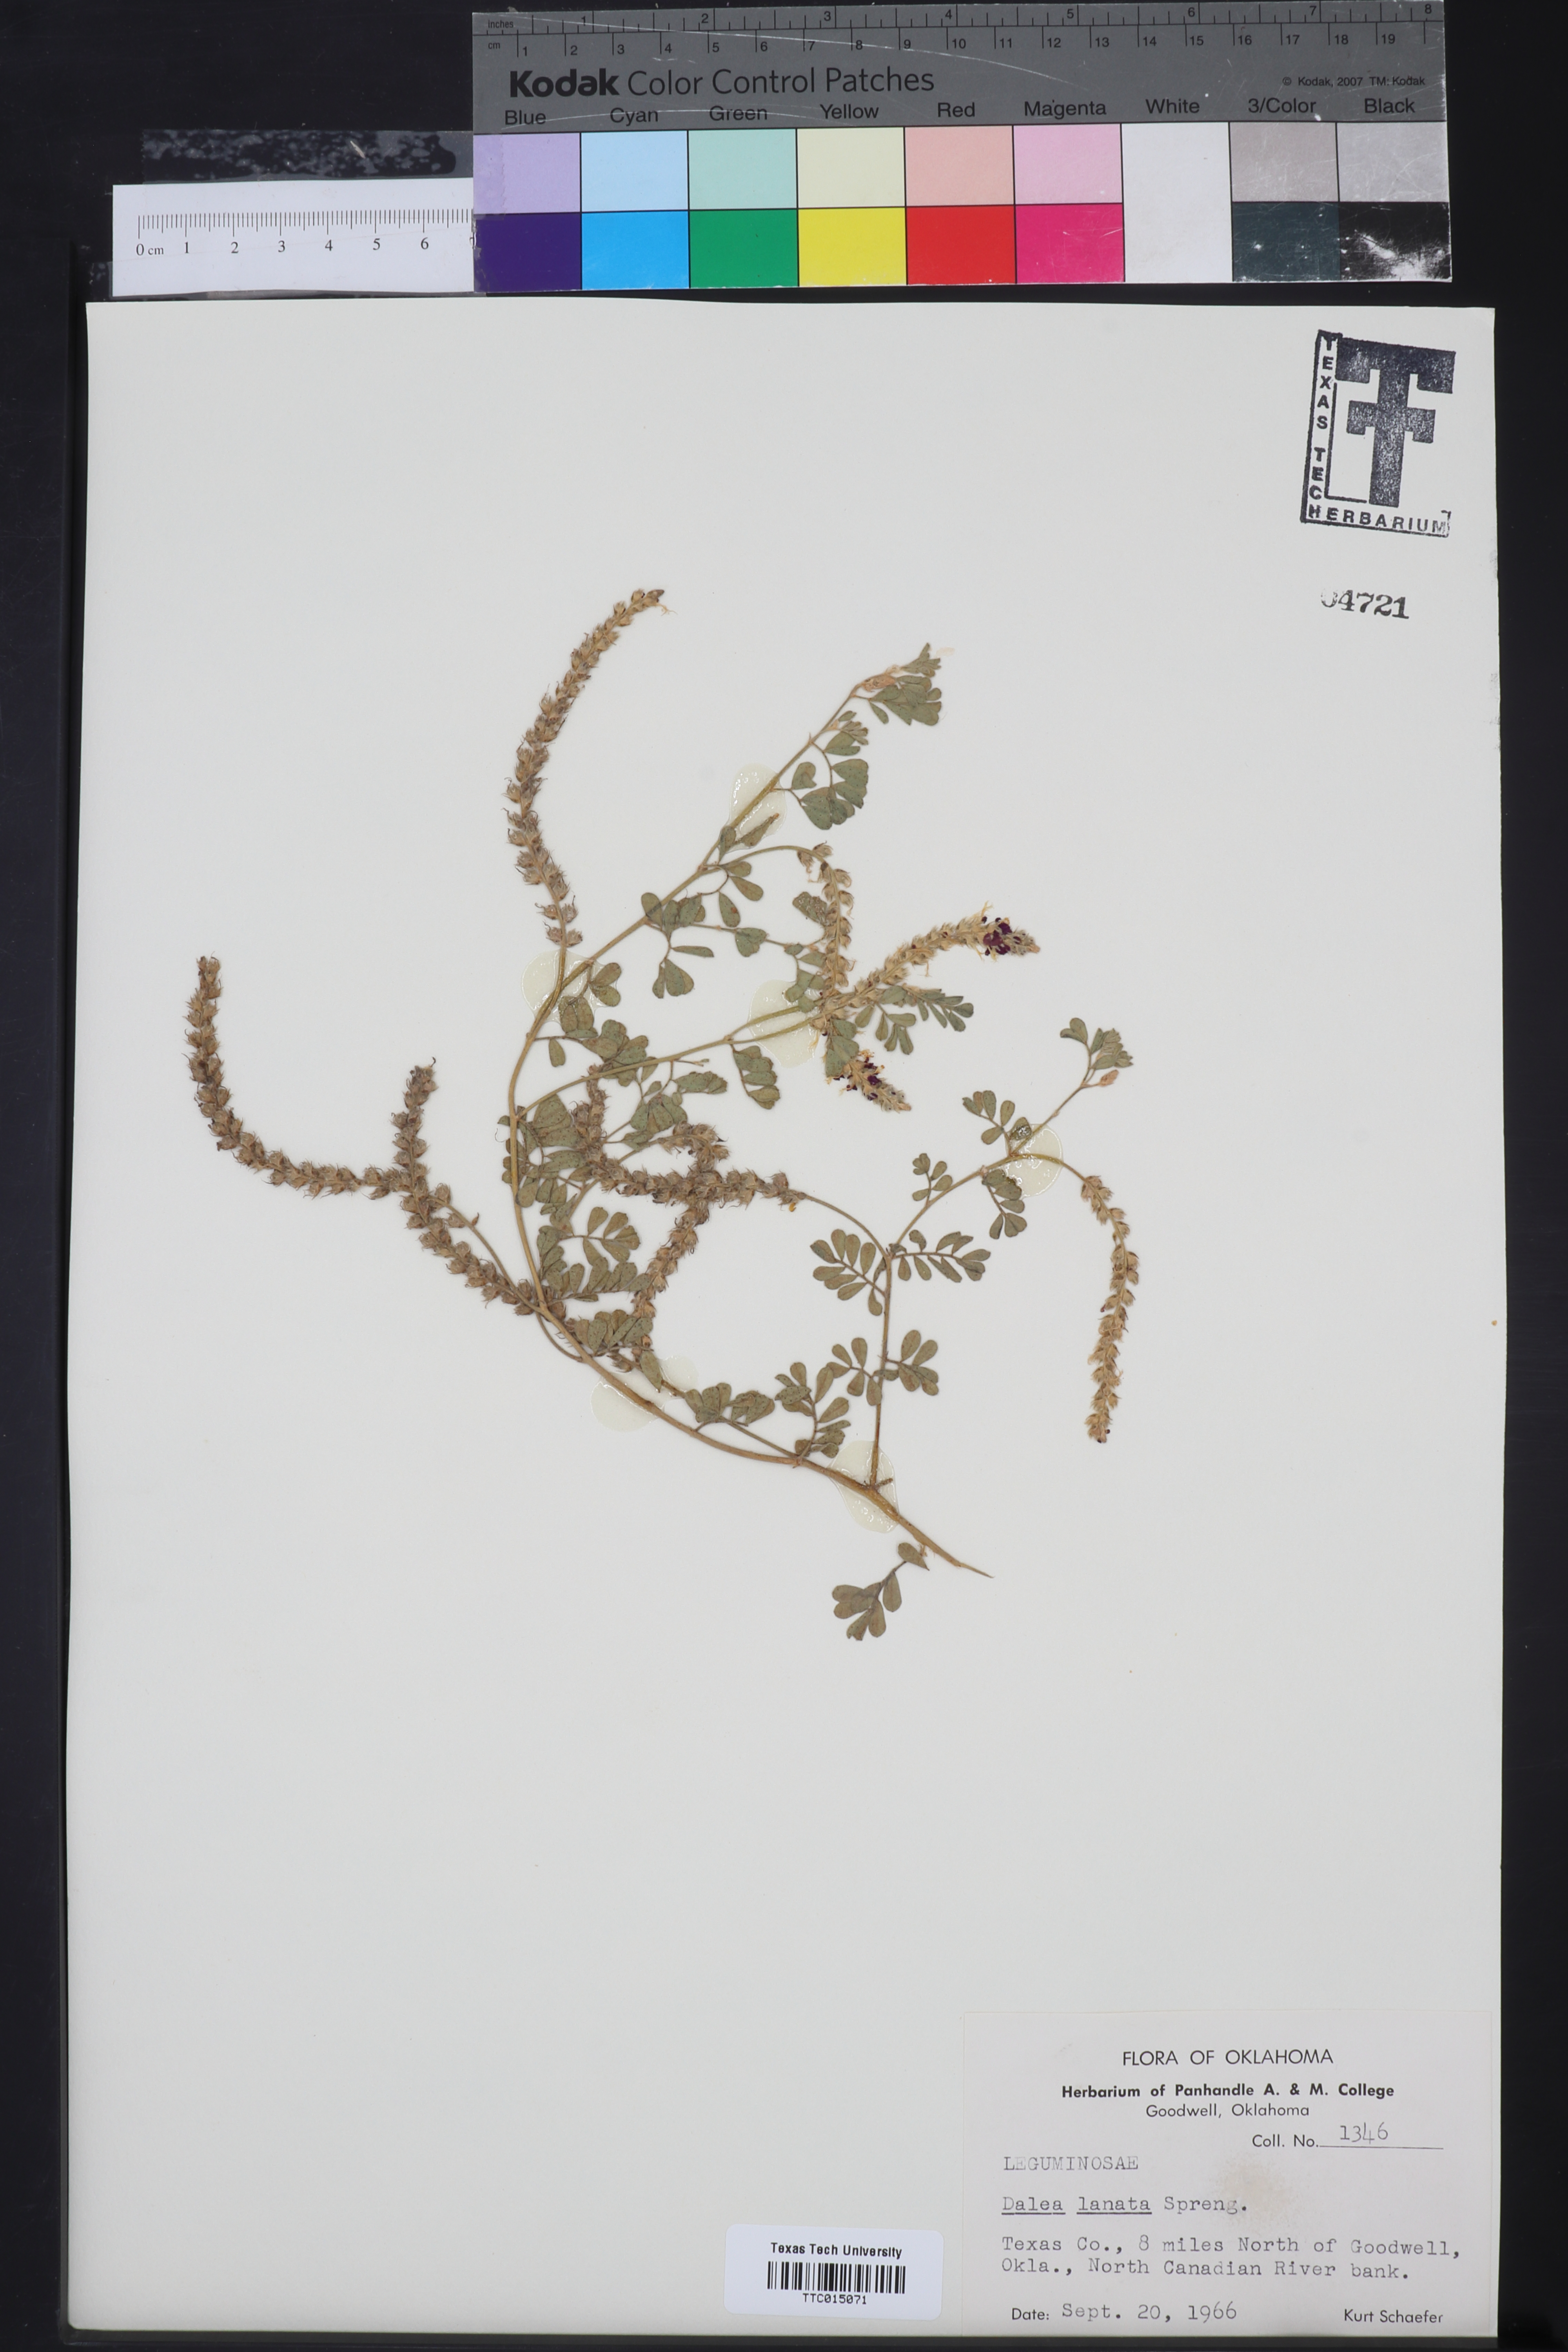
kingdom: Plantae
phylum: Tracheophyta
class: Magnoliopsida
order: Fabales
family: Fabaceae
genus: Dalea
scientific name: Dalea lanata
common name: Woolly dalea
